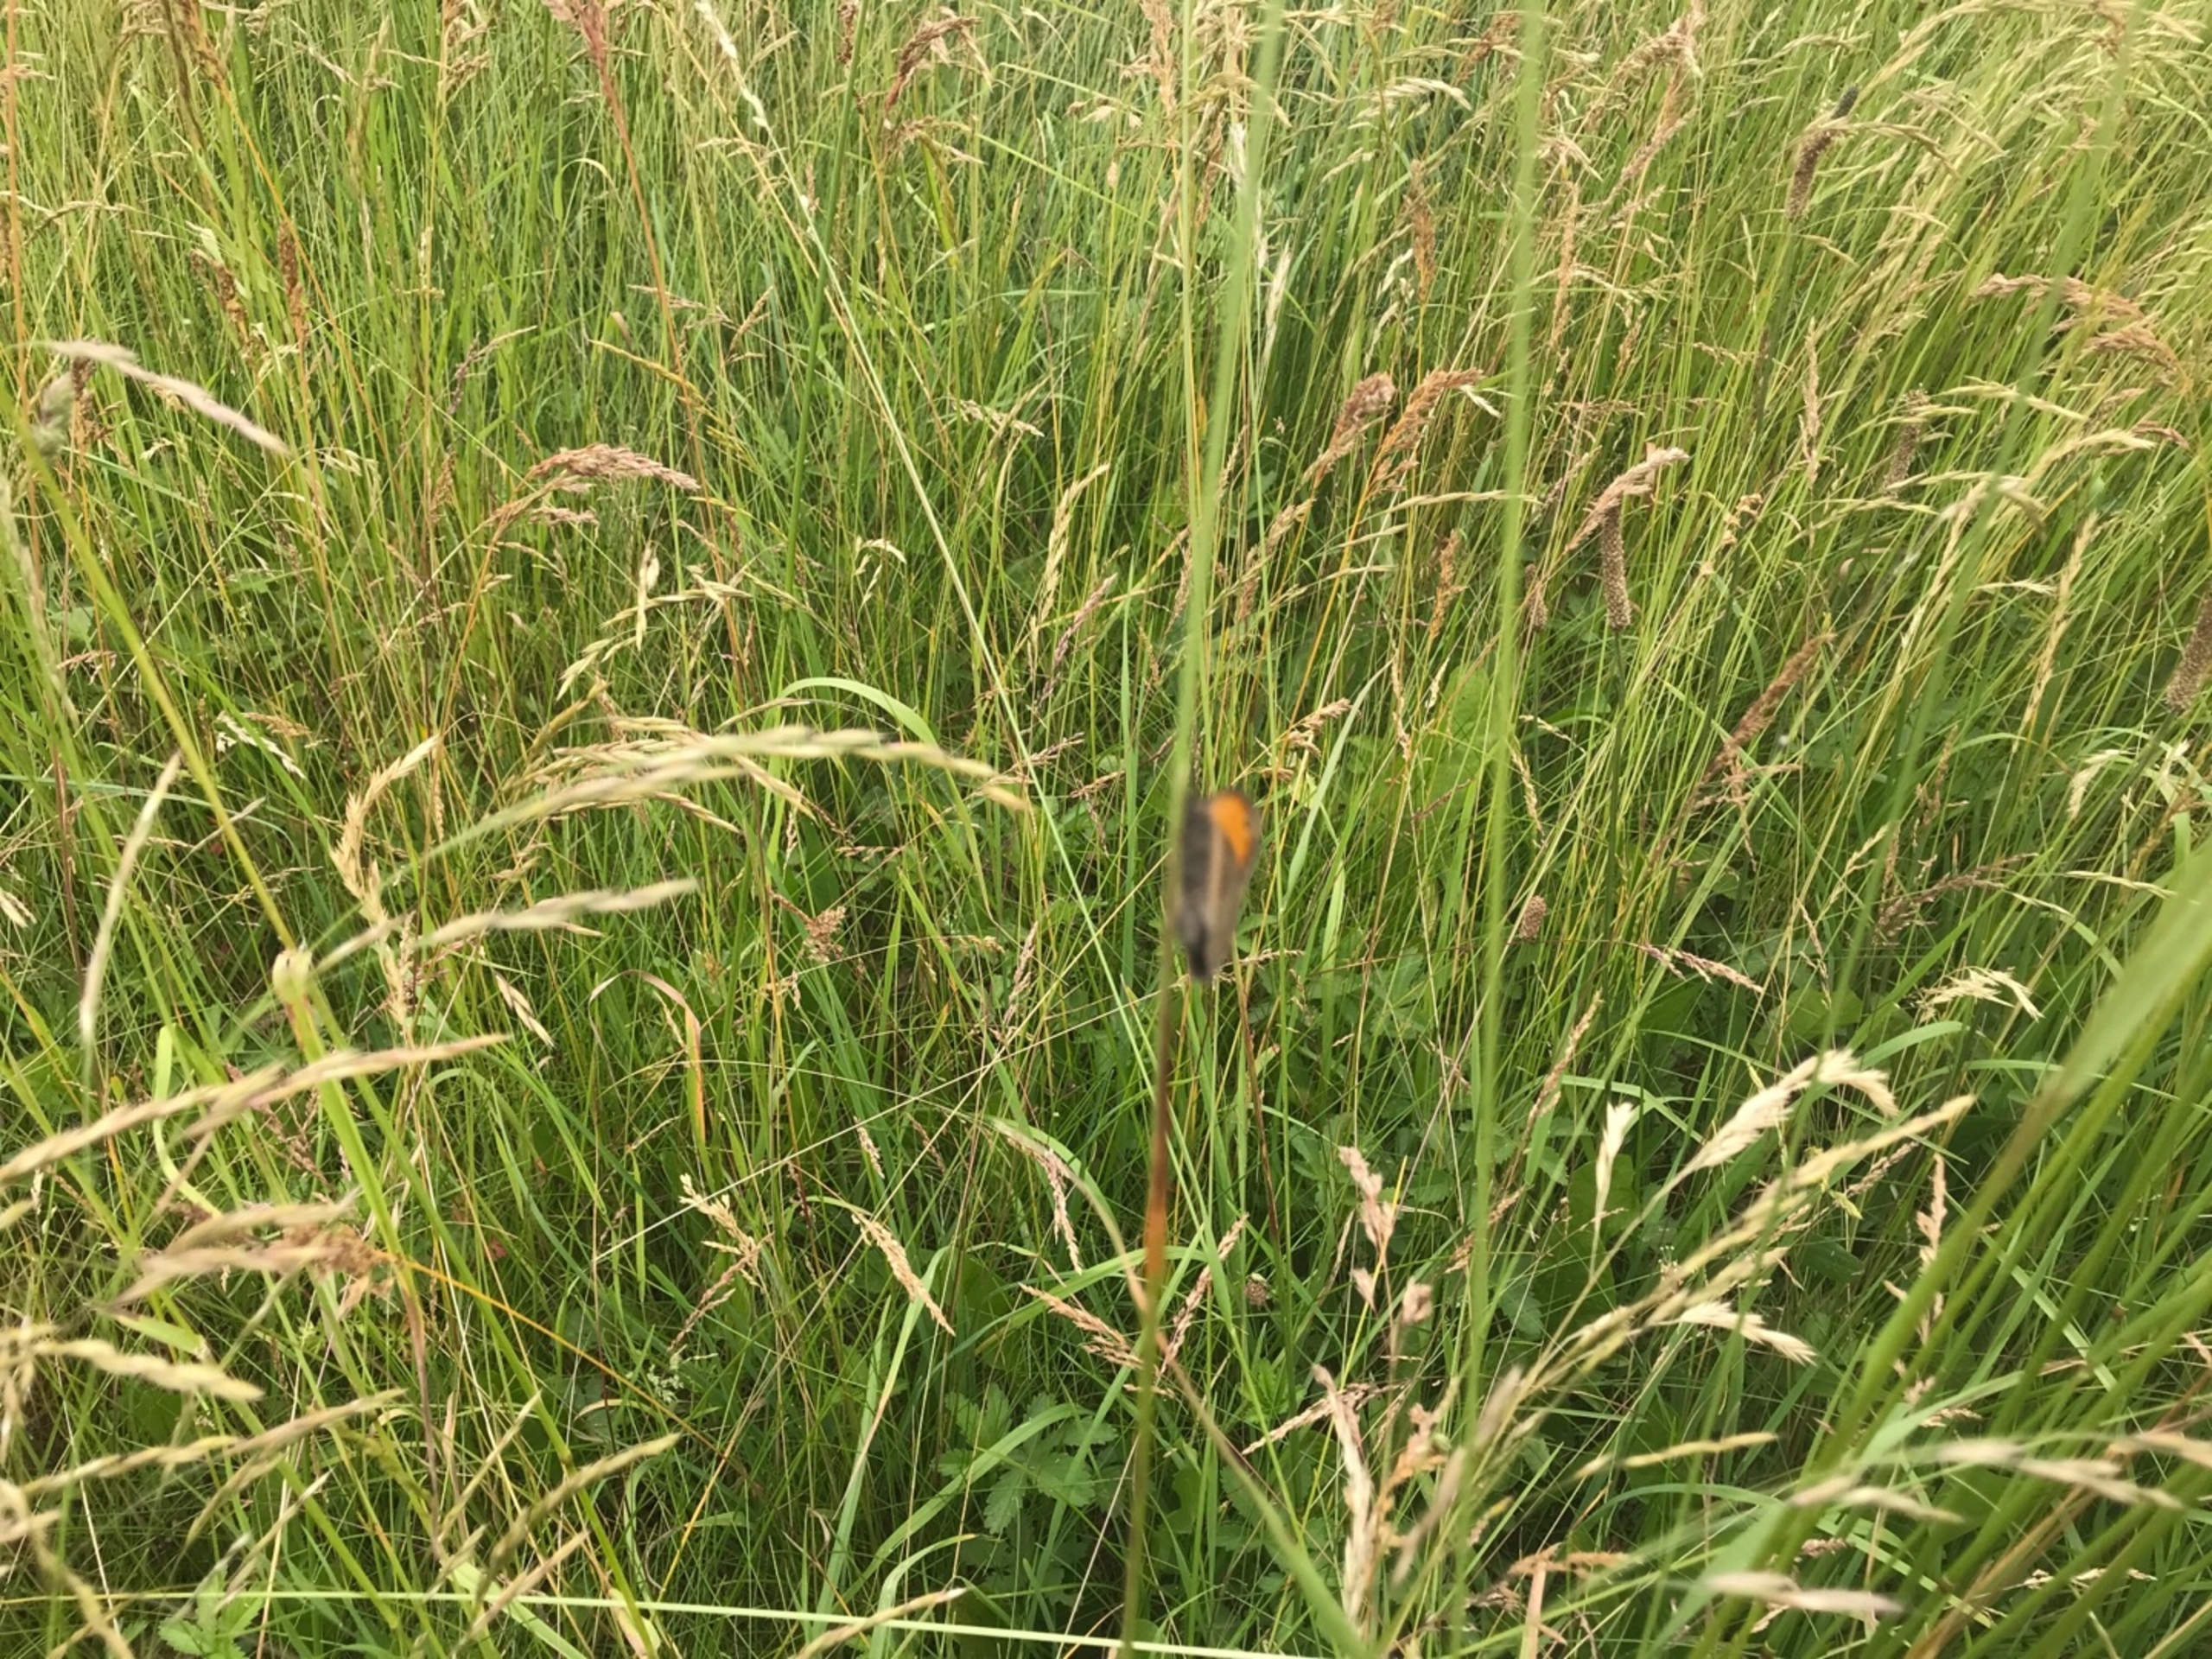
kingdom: Animalia
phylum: Arthropoda
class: Insecta
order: Lepidoptera
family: Nymphalidae
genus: Maniola
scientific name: Maniola jurtina
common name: Græsrandøje
